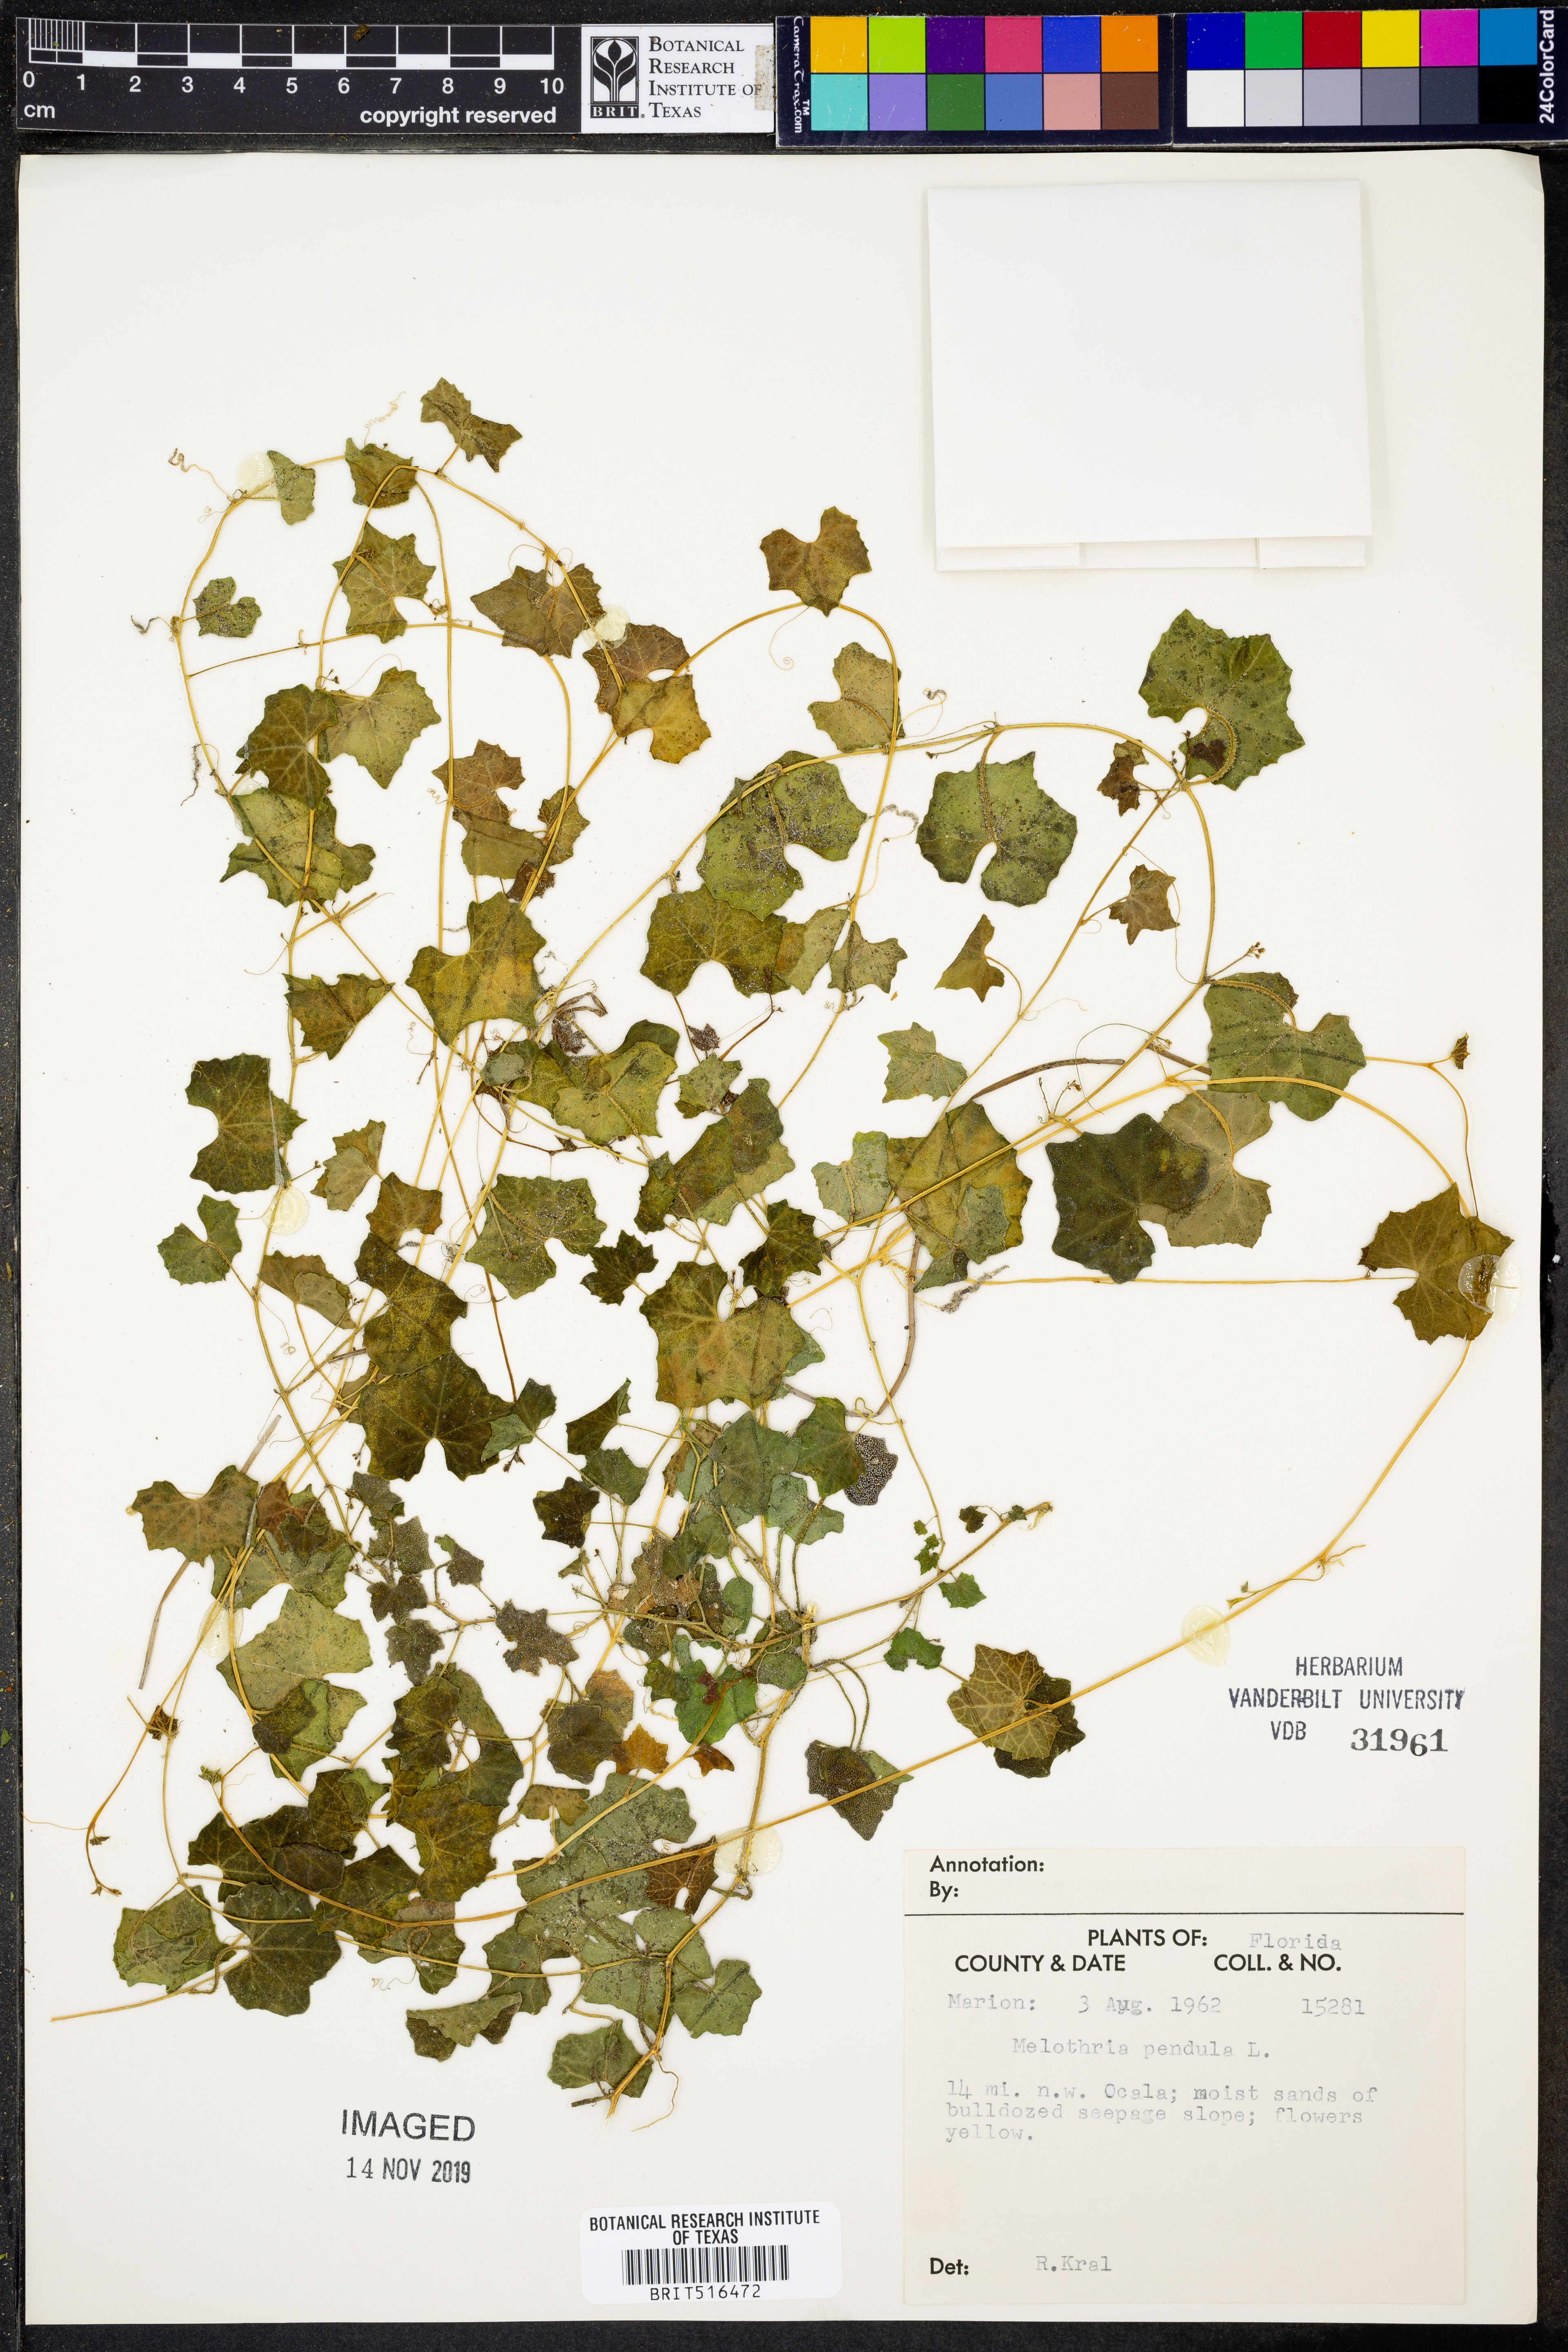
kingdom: Plantae
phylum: Tracheophyta
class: Magnoliopsida
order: Cucurbitales
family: Cucurbitaceae
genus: Melothria
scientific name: Melothria pendula
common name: Creeping-cucumber
